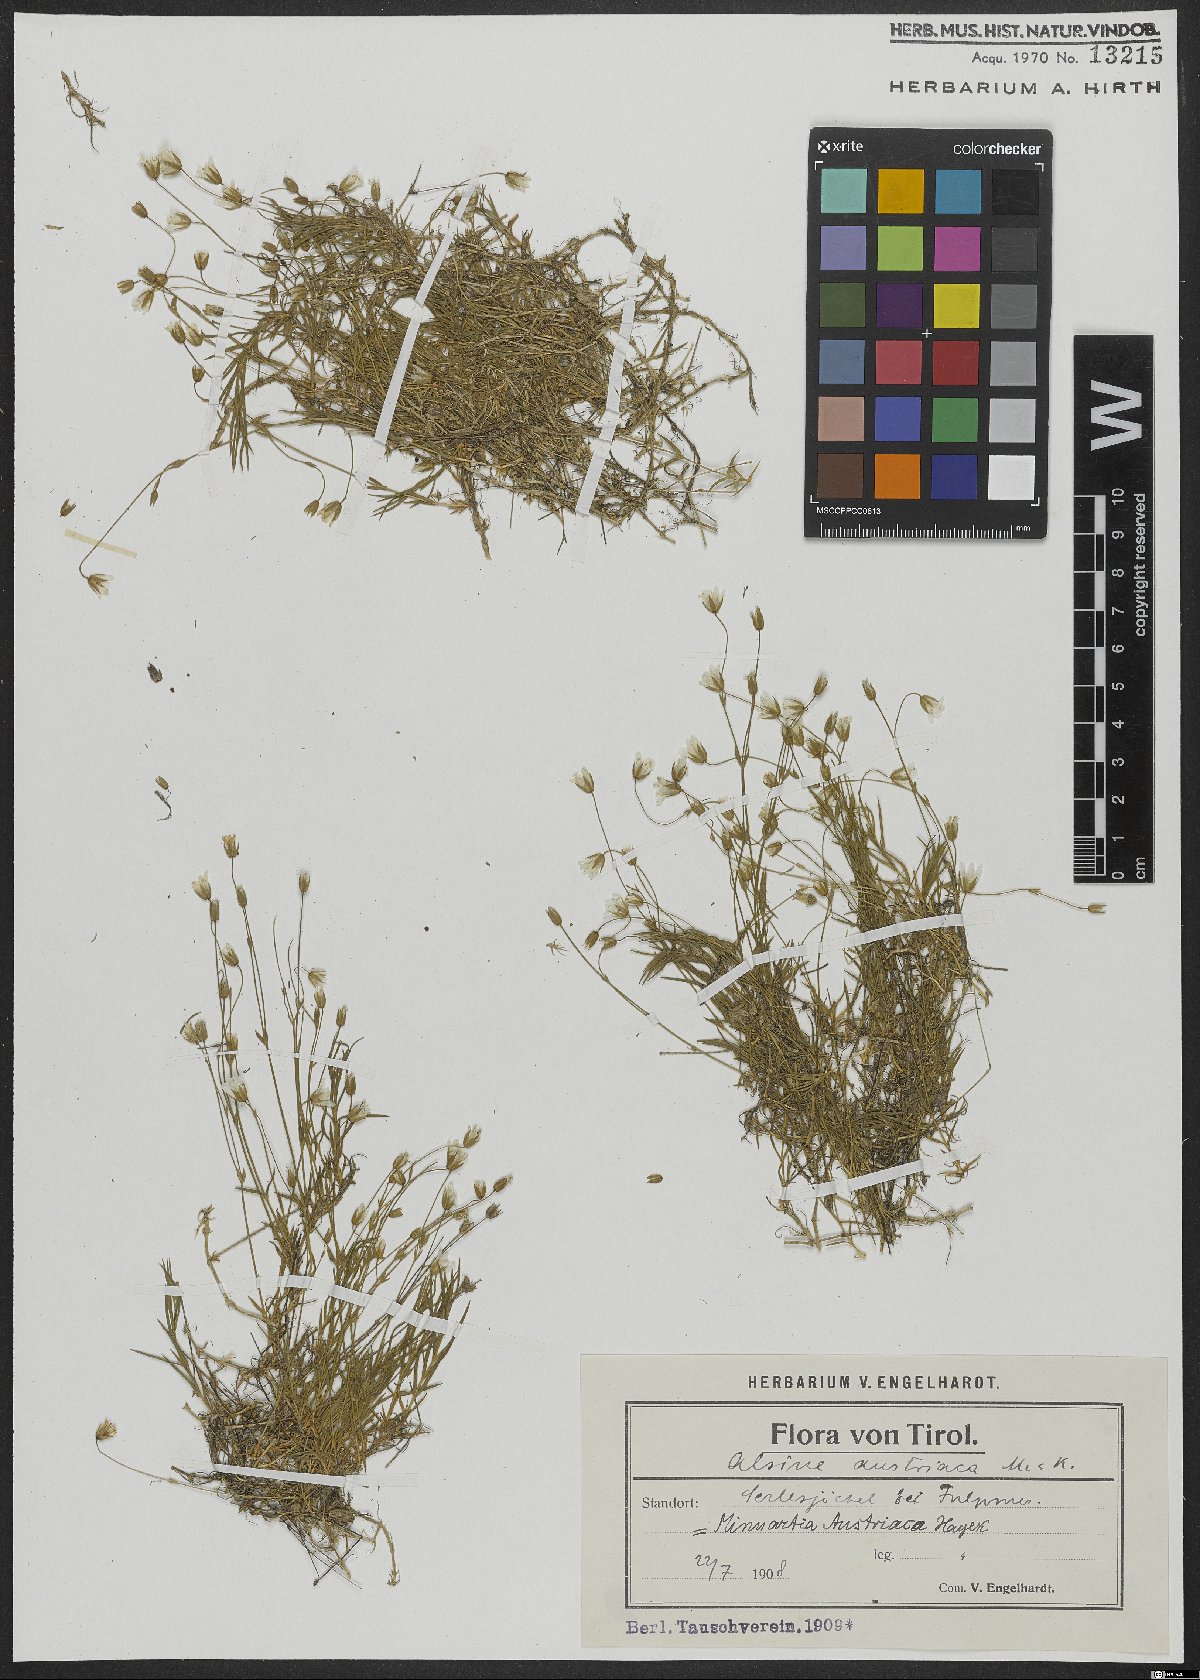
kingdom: Plantae
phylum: Tracheophyta
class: Magnoliopsida
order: Caryophyllales
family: Caryophyllaceae
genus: Sabulina
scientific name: Sabulina austriaca
